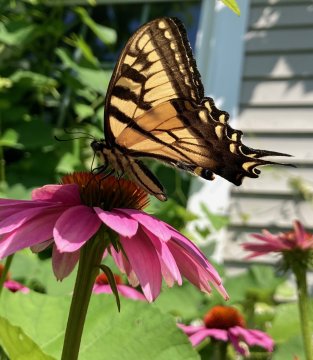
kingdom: Animalia
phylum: Arthropoda
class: Insecta
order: Lepidoptera
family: Papilionidae
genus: Pterourus
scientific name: Pterourus
